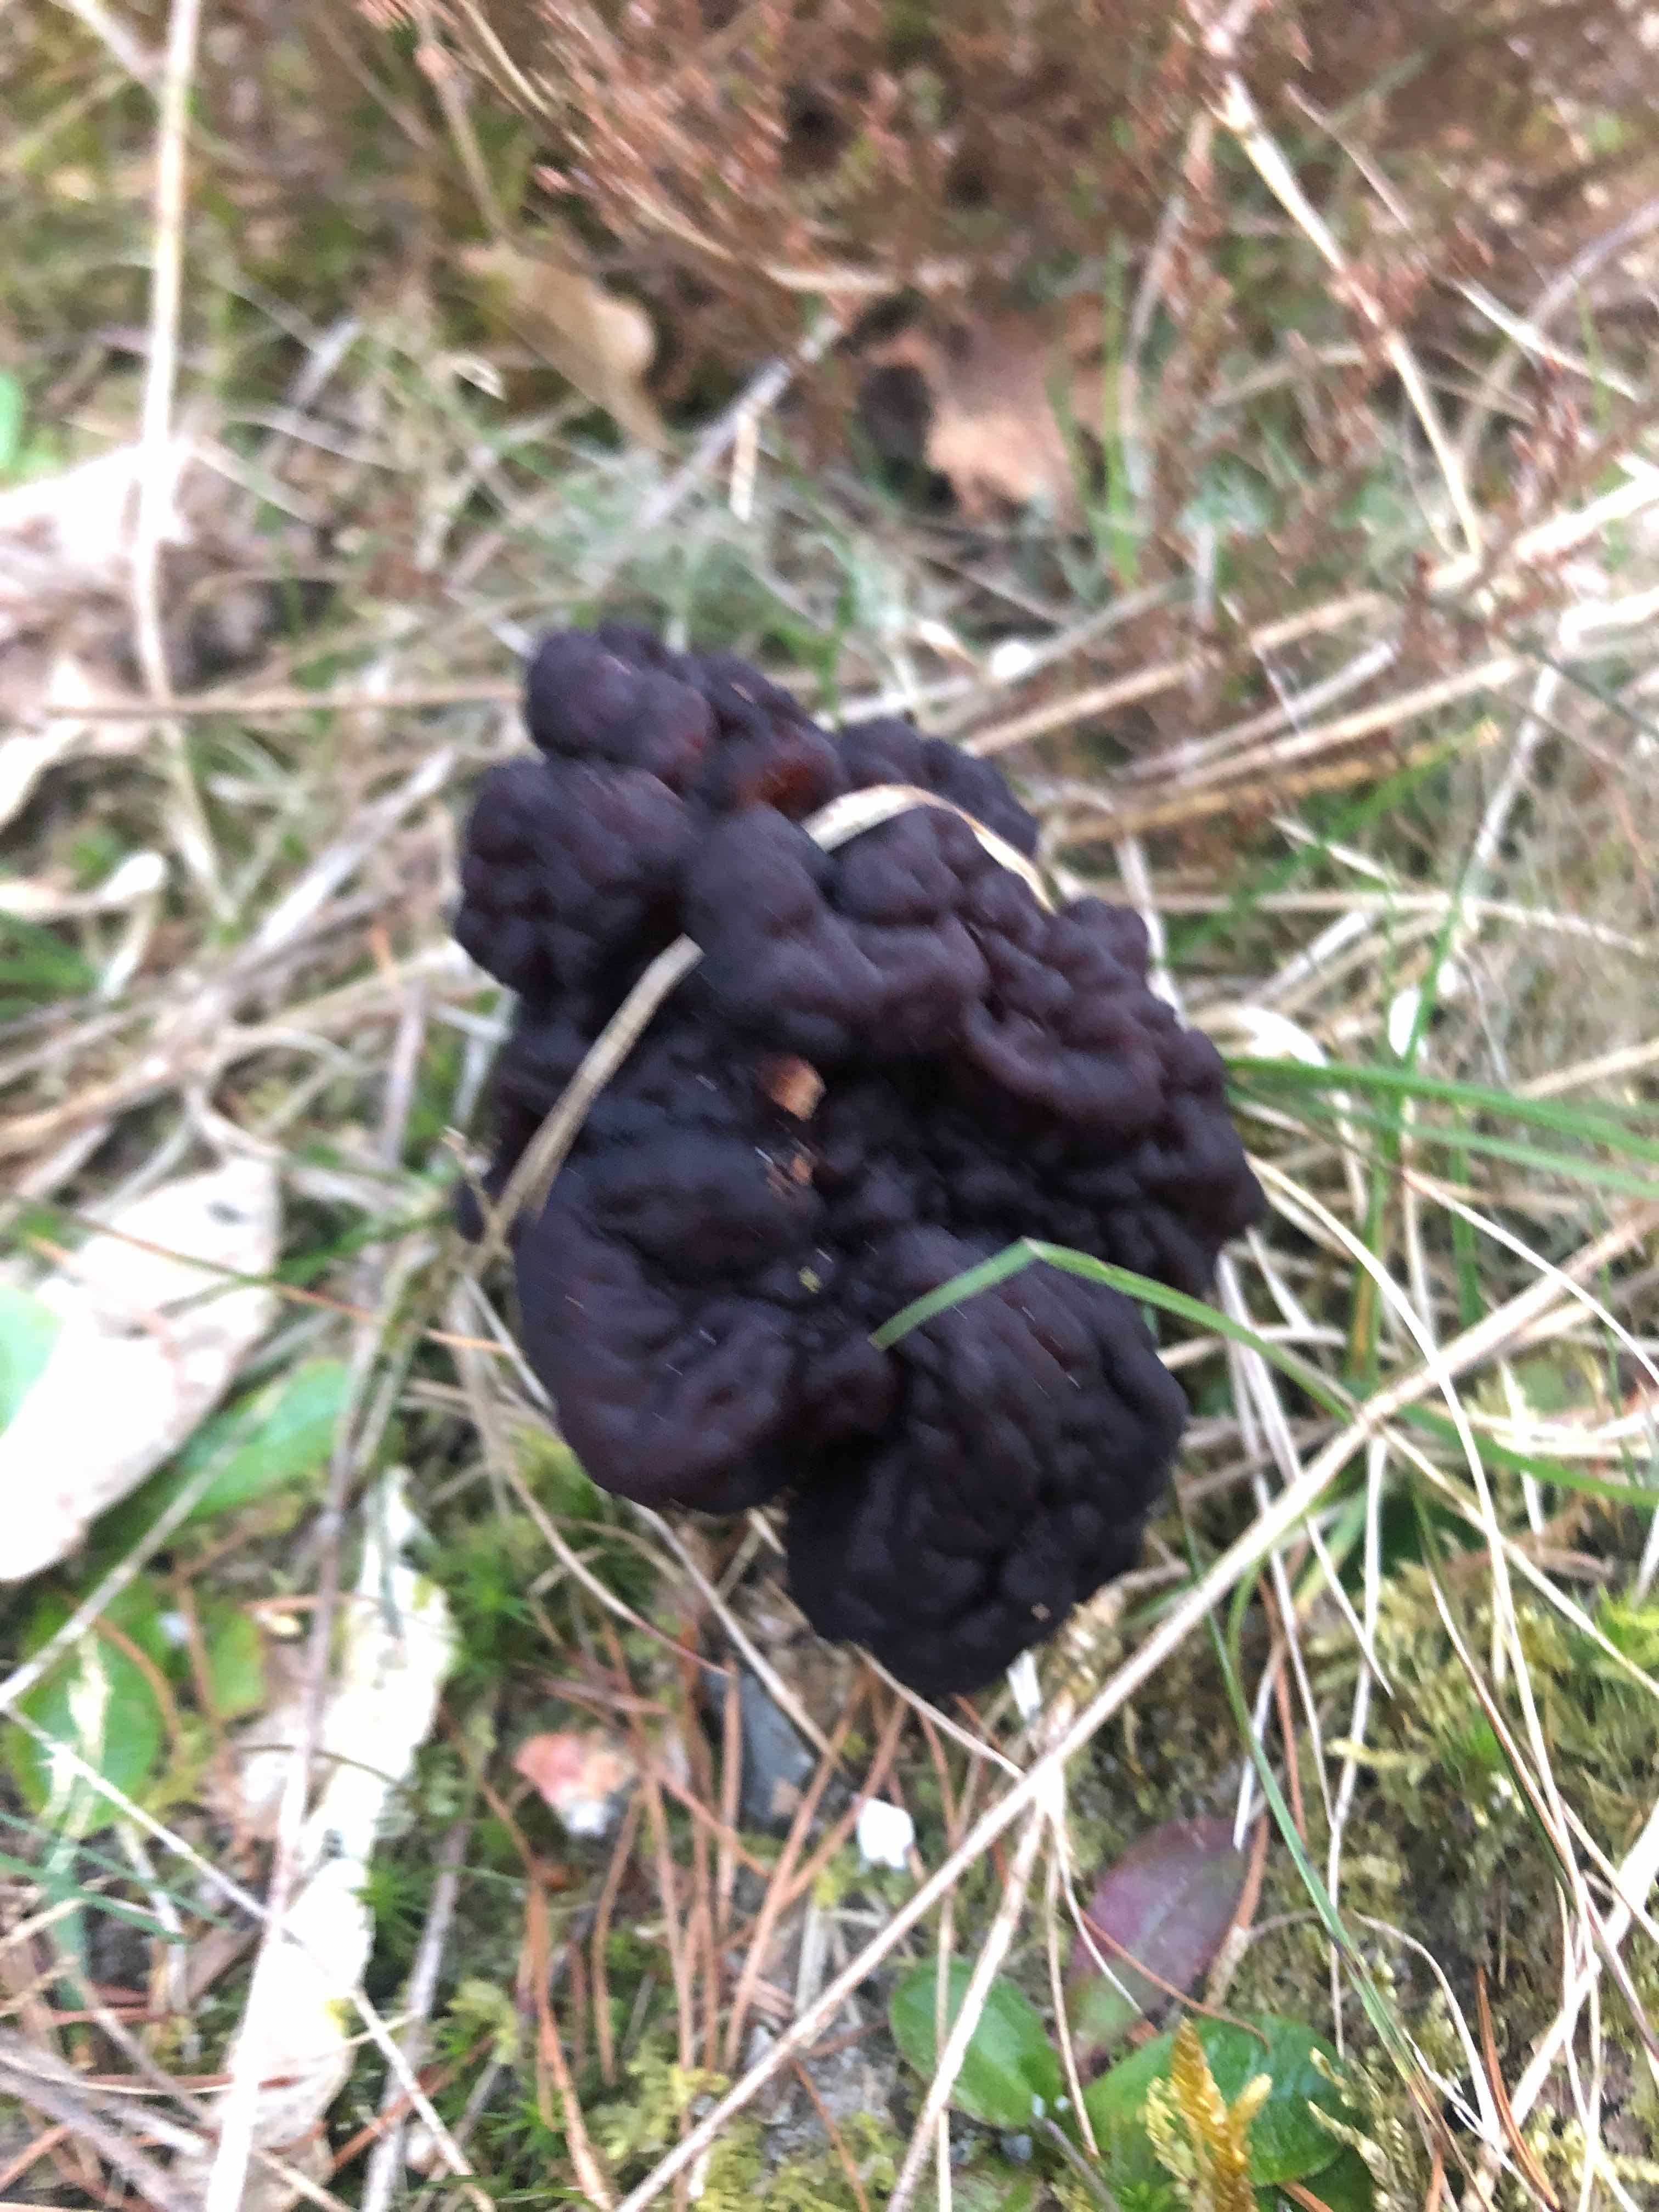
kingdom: Fungi
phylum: Ascomycota
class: Pezizomycetes
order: Pezizales
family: Discinaceae
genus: Gyromitra
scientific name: Gyromitra esculenta
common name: ægte stenmorkel
